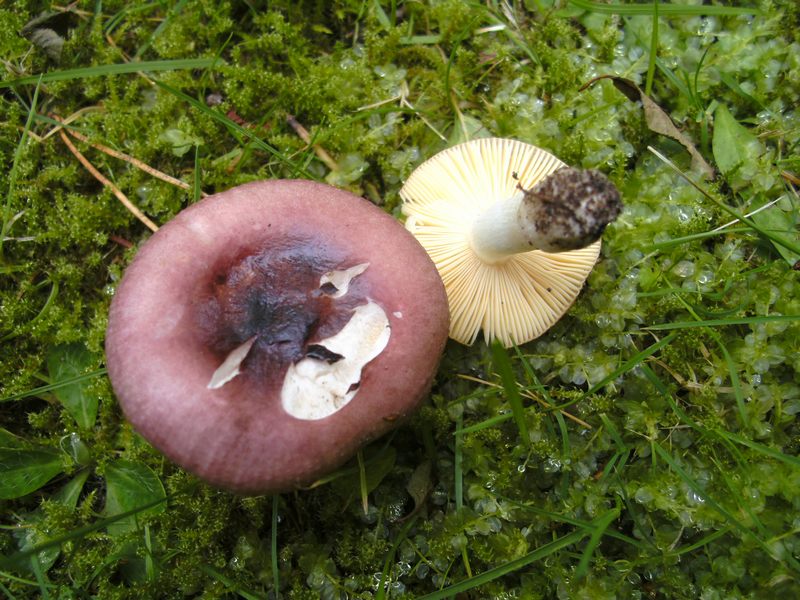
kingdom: Fungi
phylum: Basidiomycota
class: Agaricomycetes
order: Russulales
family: Russulaceae
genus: Russula
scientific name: Russula cessans
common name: fyrre-skørhat
